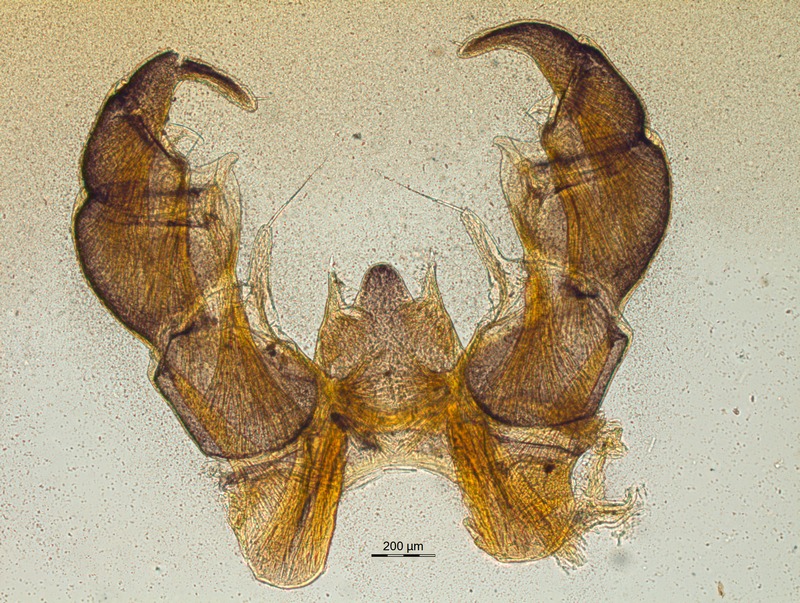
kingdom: Animalia
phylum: Arthropoda
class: Diplopoda
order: Glomerida
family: Glomeridae
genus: Glomeris
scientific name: Glomeris aurita
